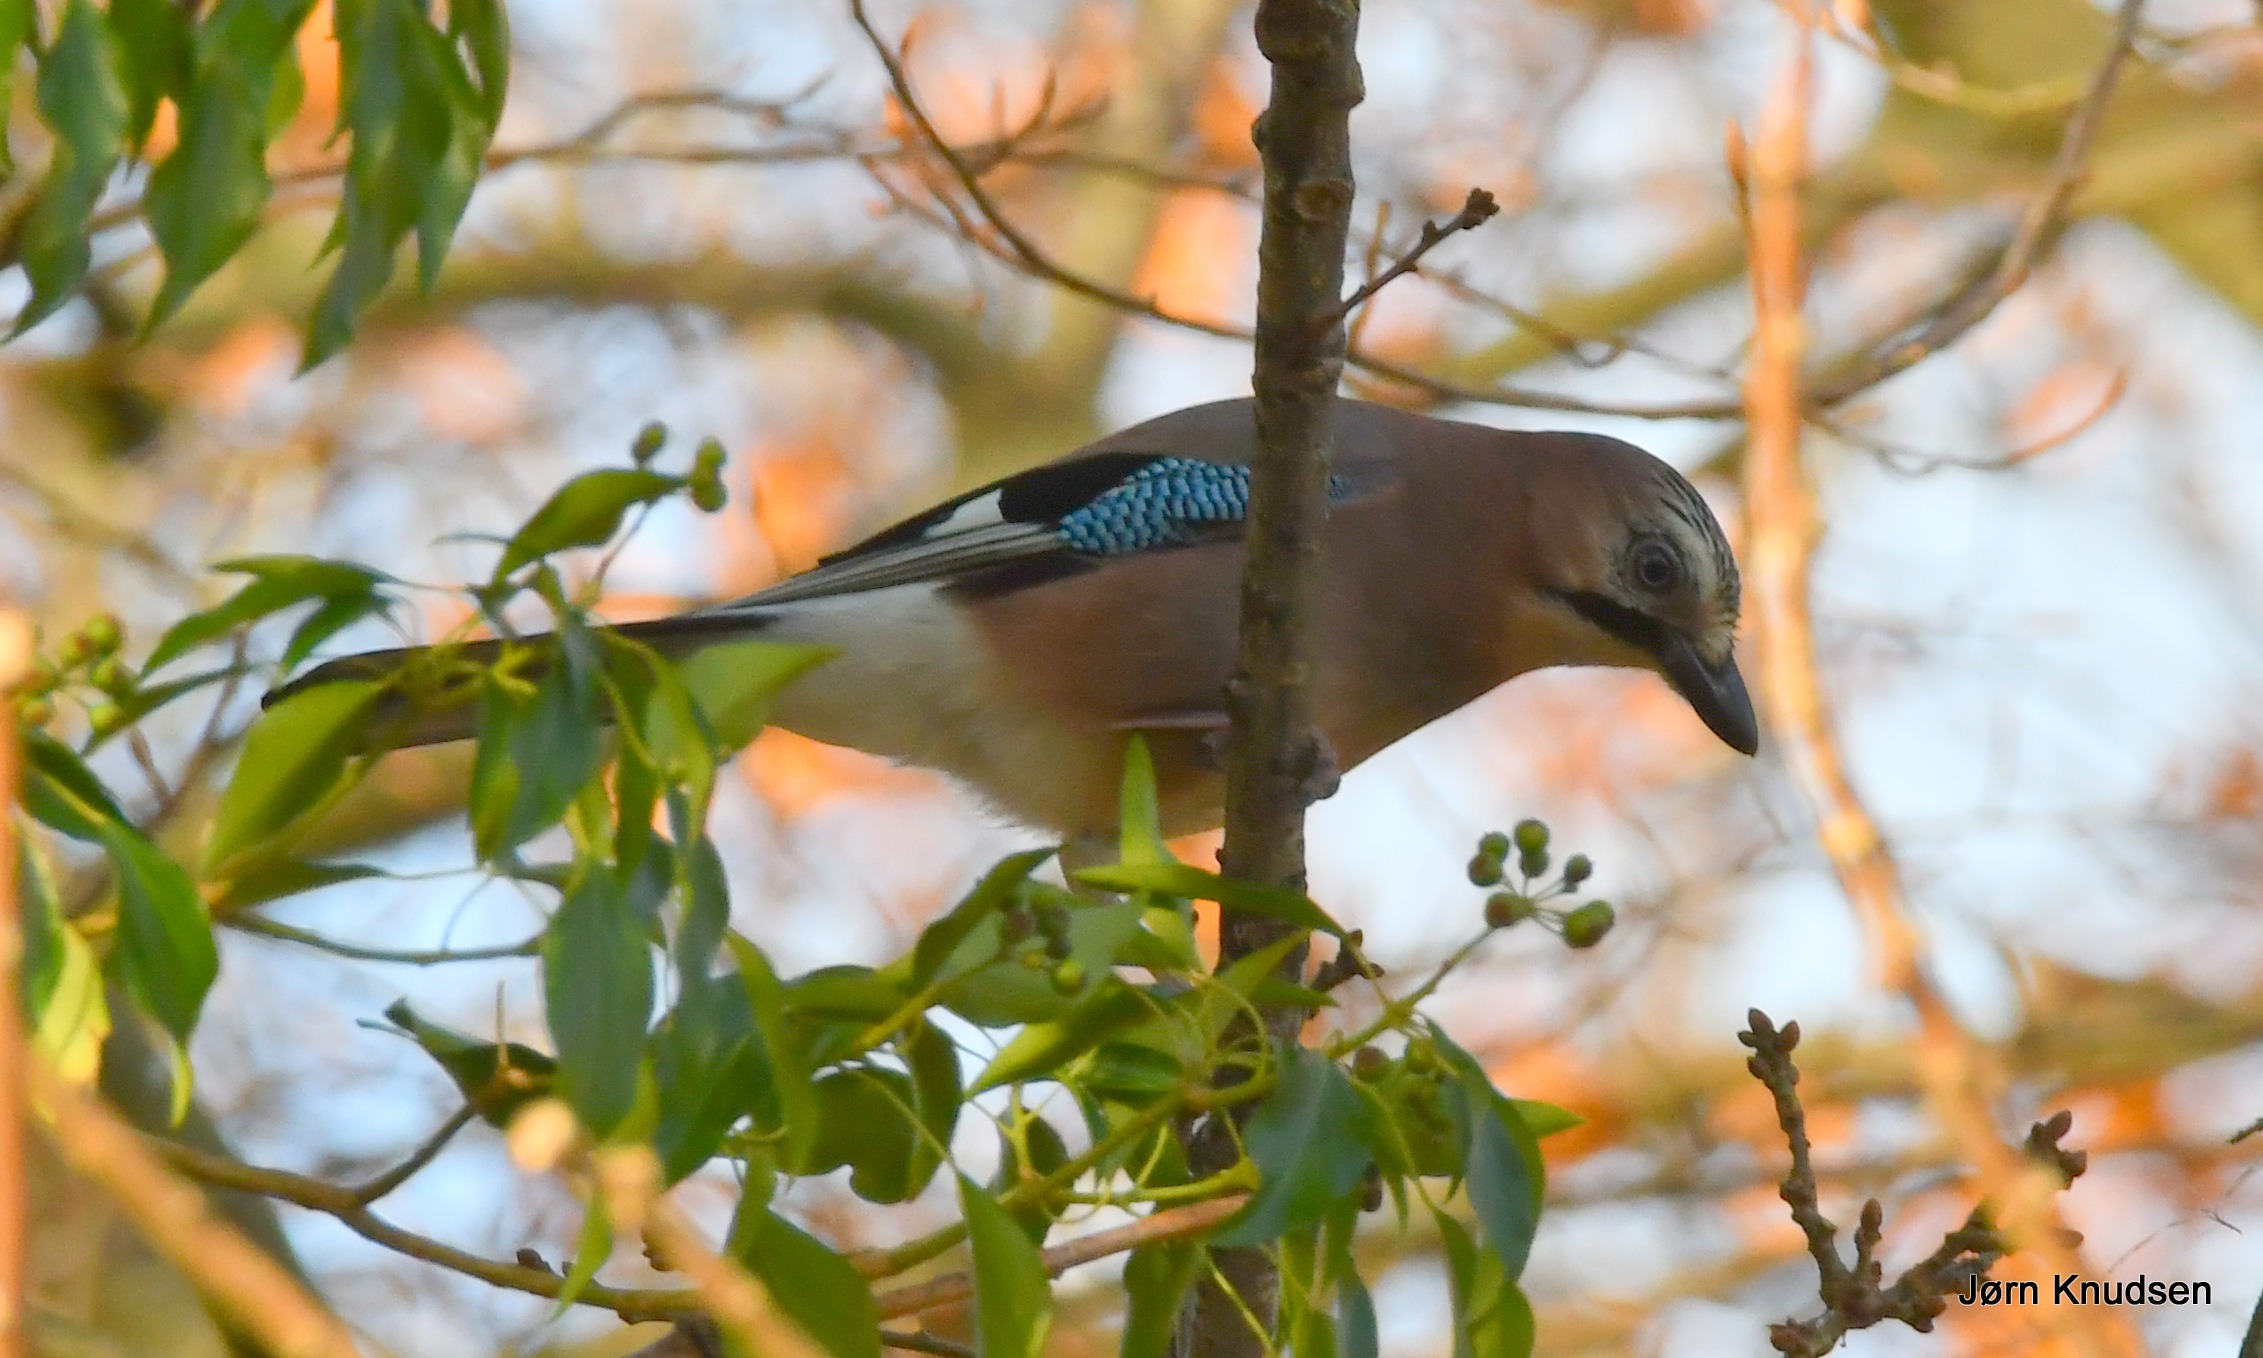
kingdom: Animalia
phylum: Chordata
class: Aves
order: Passeriformes
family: Corvidae
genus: Garrulus
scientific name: Garrulus glandarius
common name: Skovskade
